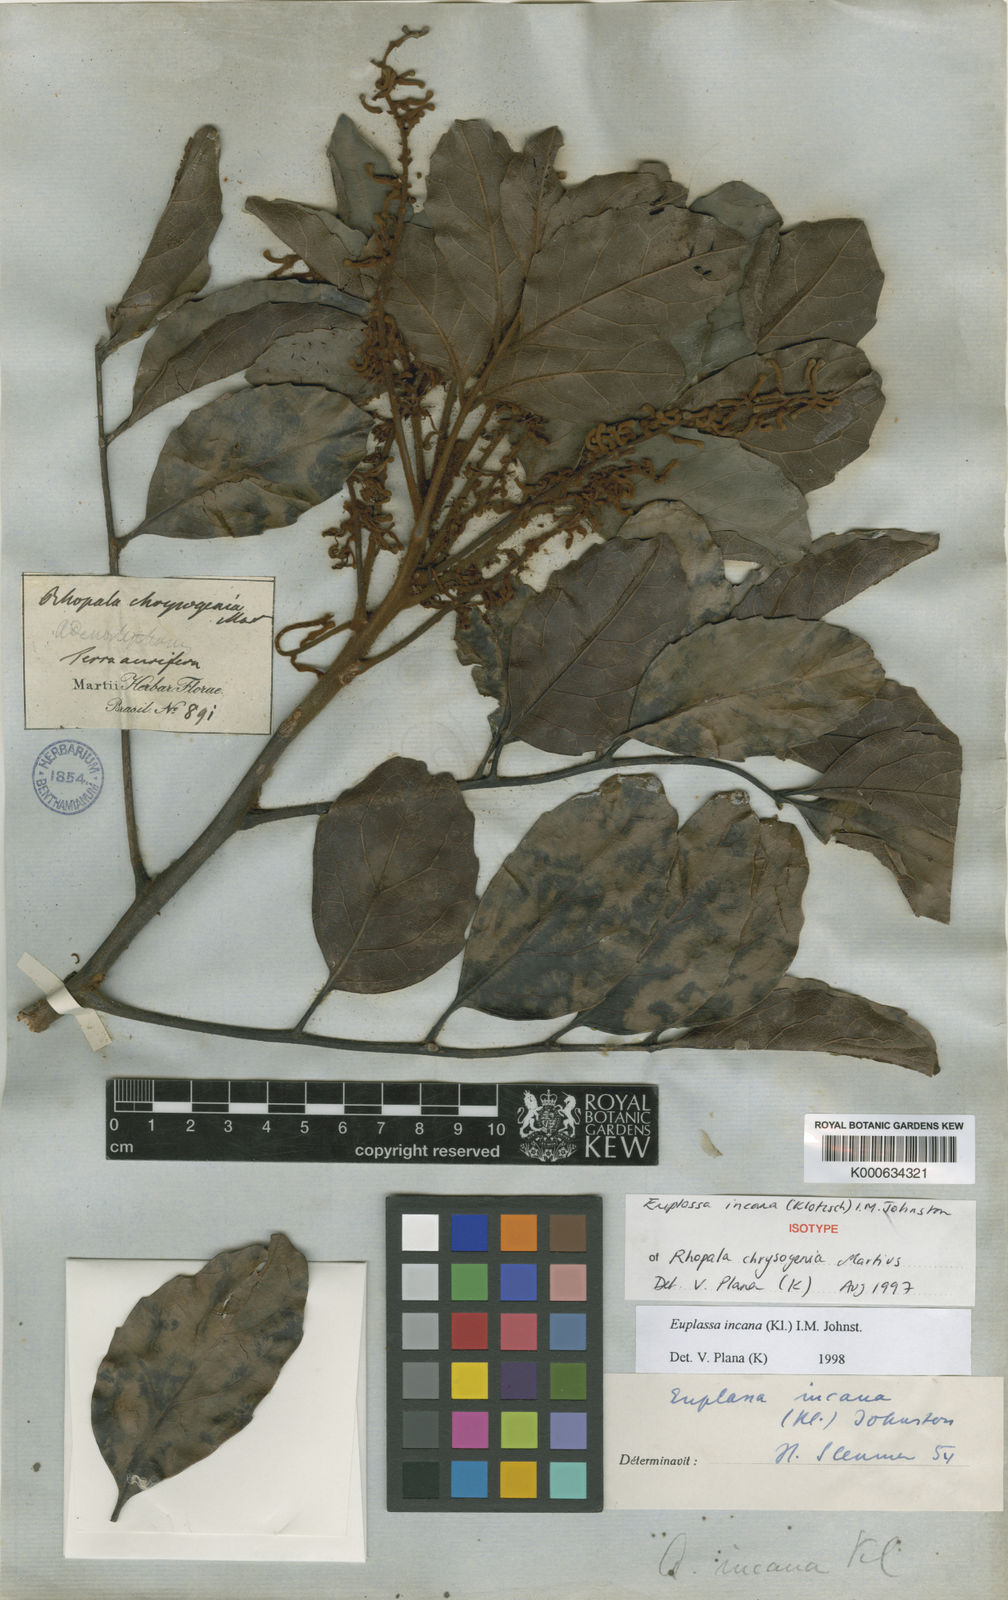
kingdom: Plantae
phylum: Tracheophyta
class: Magnoliopsida
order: Proteales
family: Proteaceae
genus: Euplassa
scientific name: Euplassa incana
